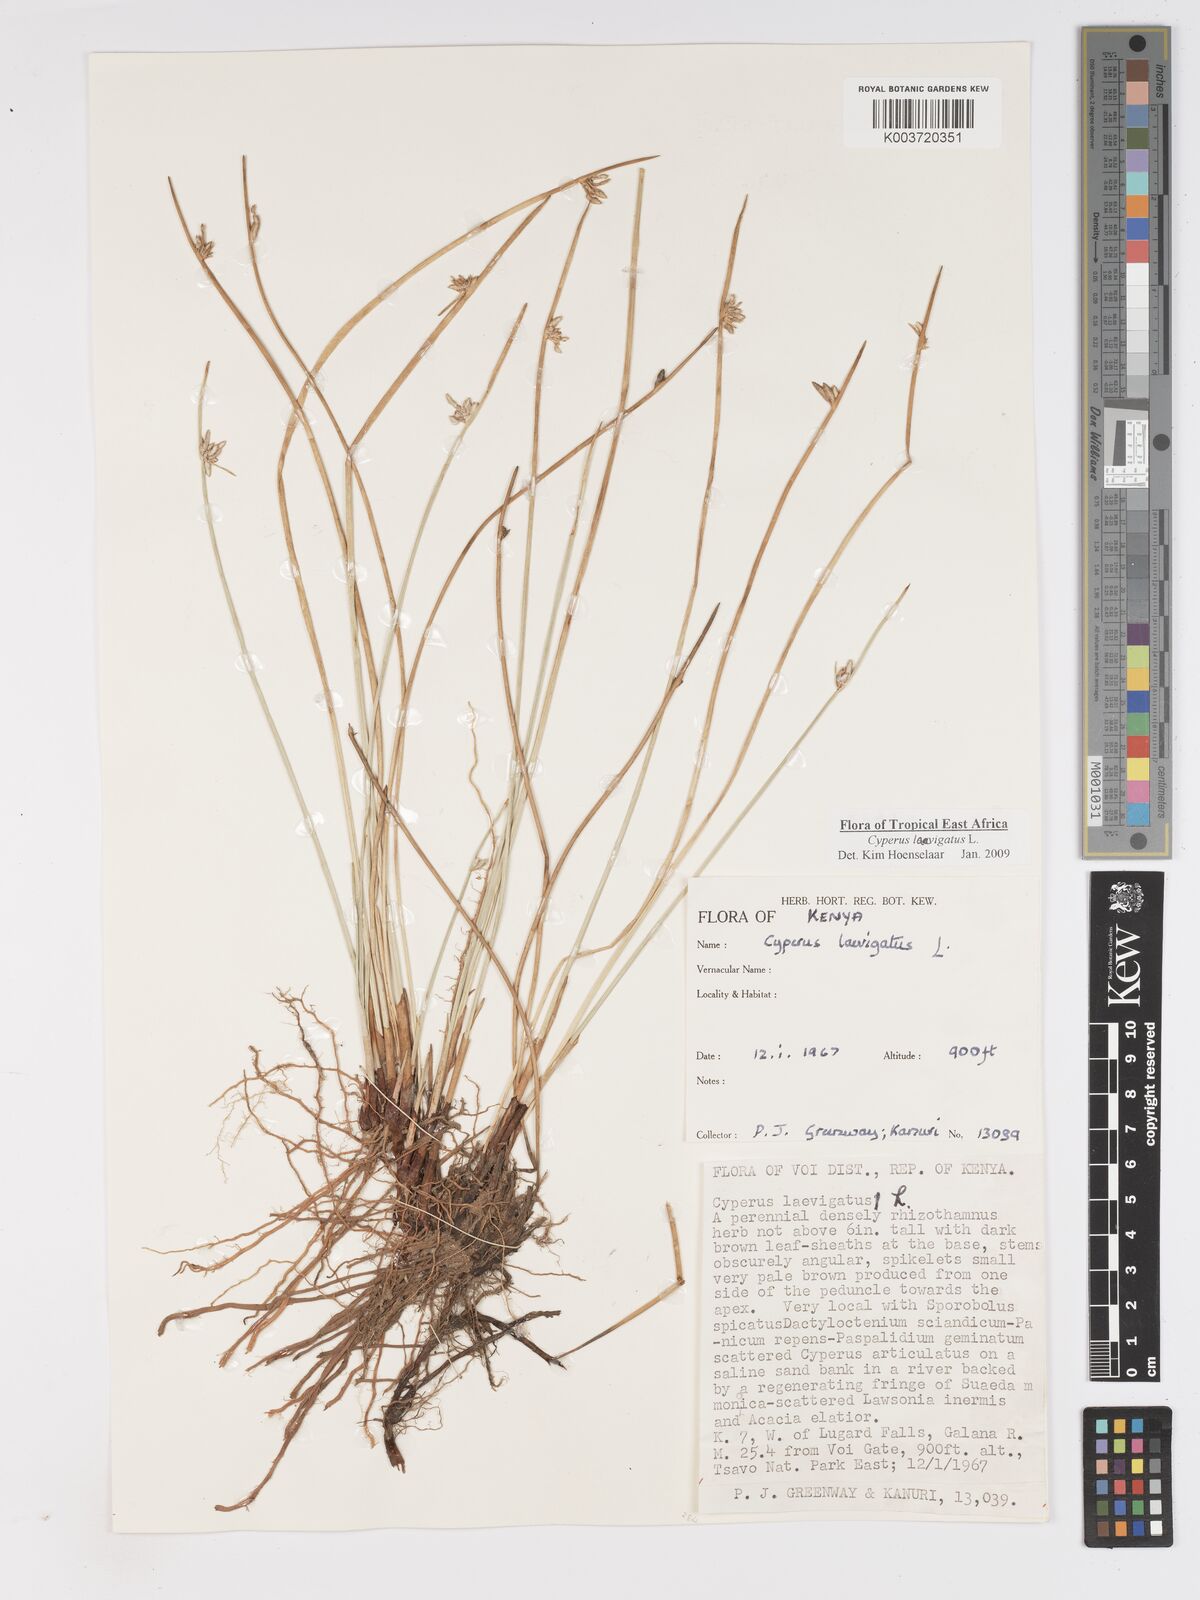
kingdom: Plantae
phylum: Tracheophyta
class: Liliopsida
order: Poales
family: Cyperaceae
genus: Cyperus
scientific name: Cyperus laevigatus
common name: Smooth flat sedge
